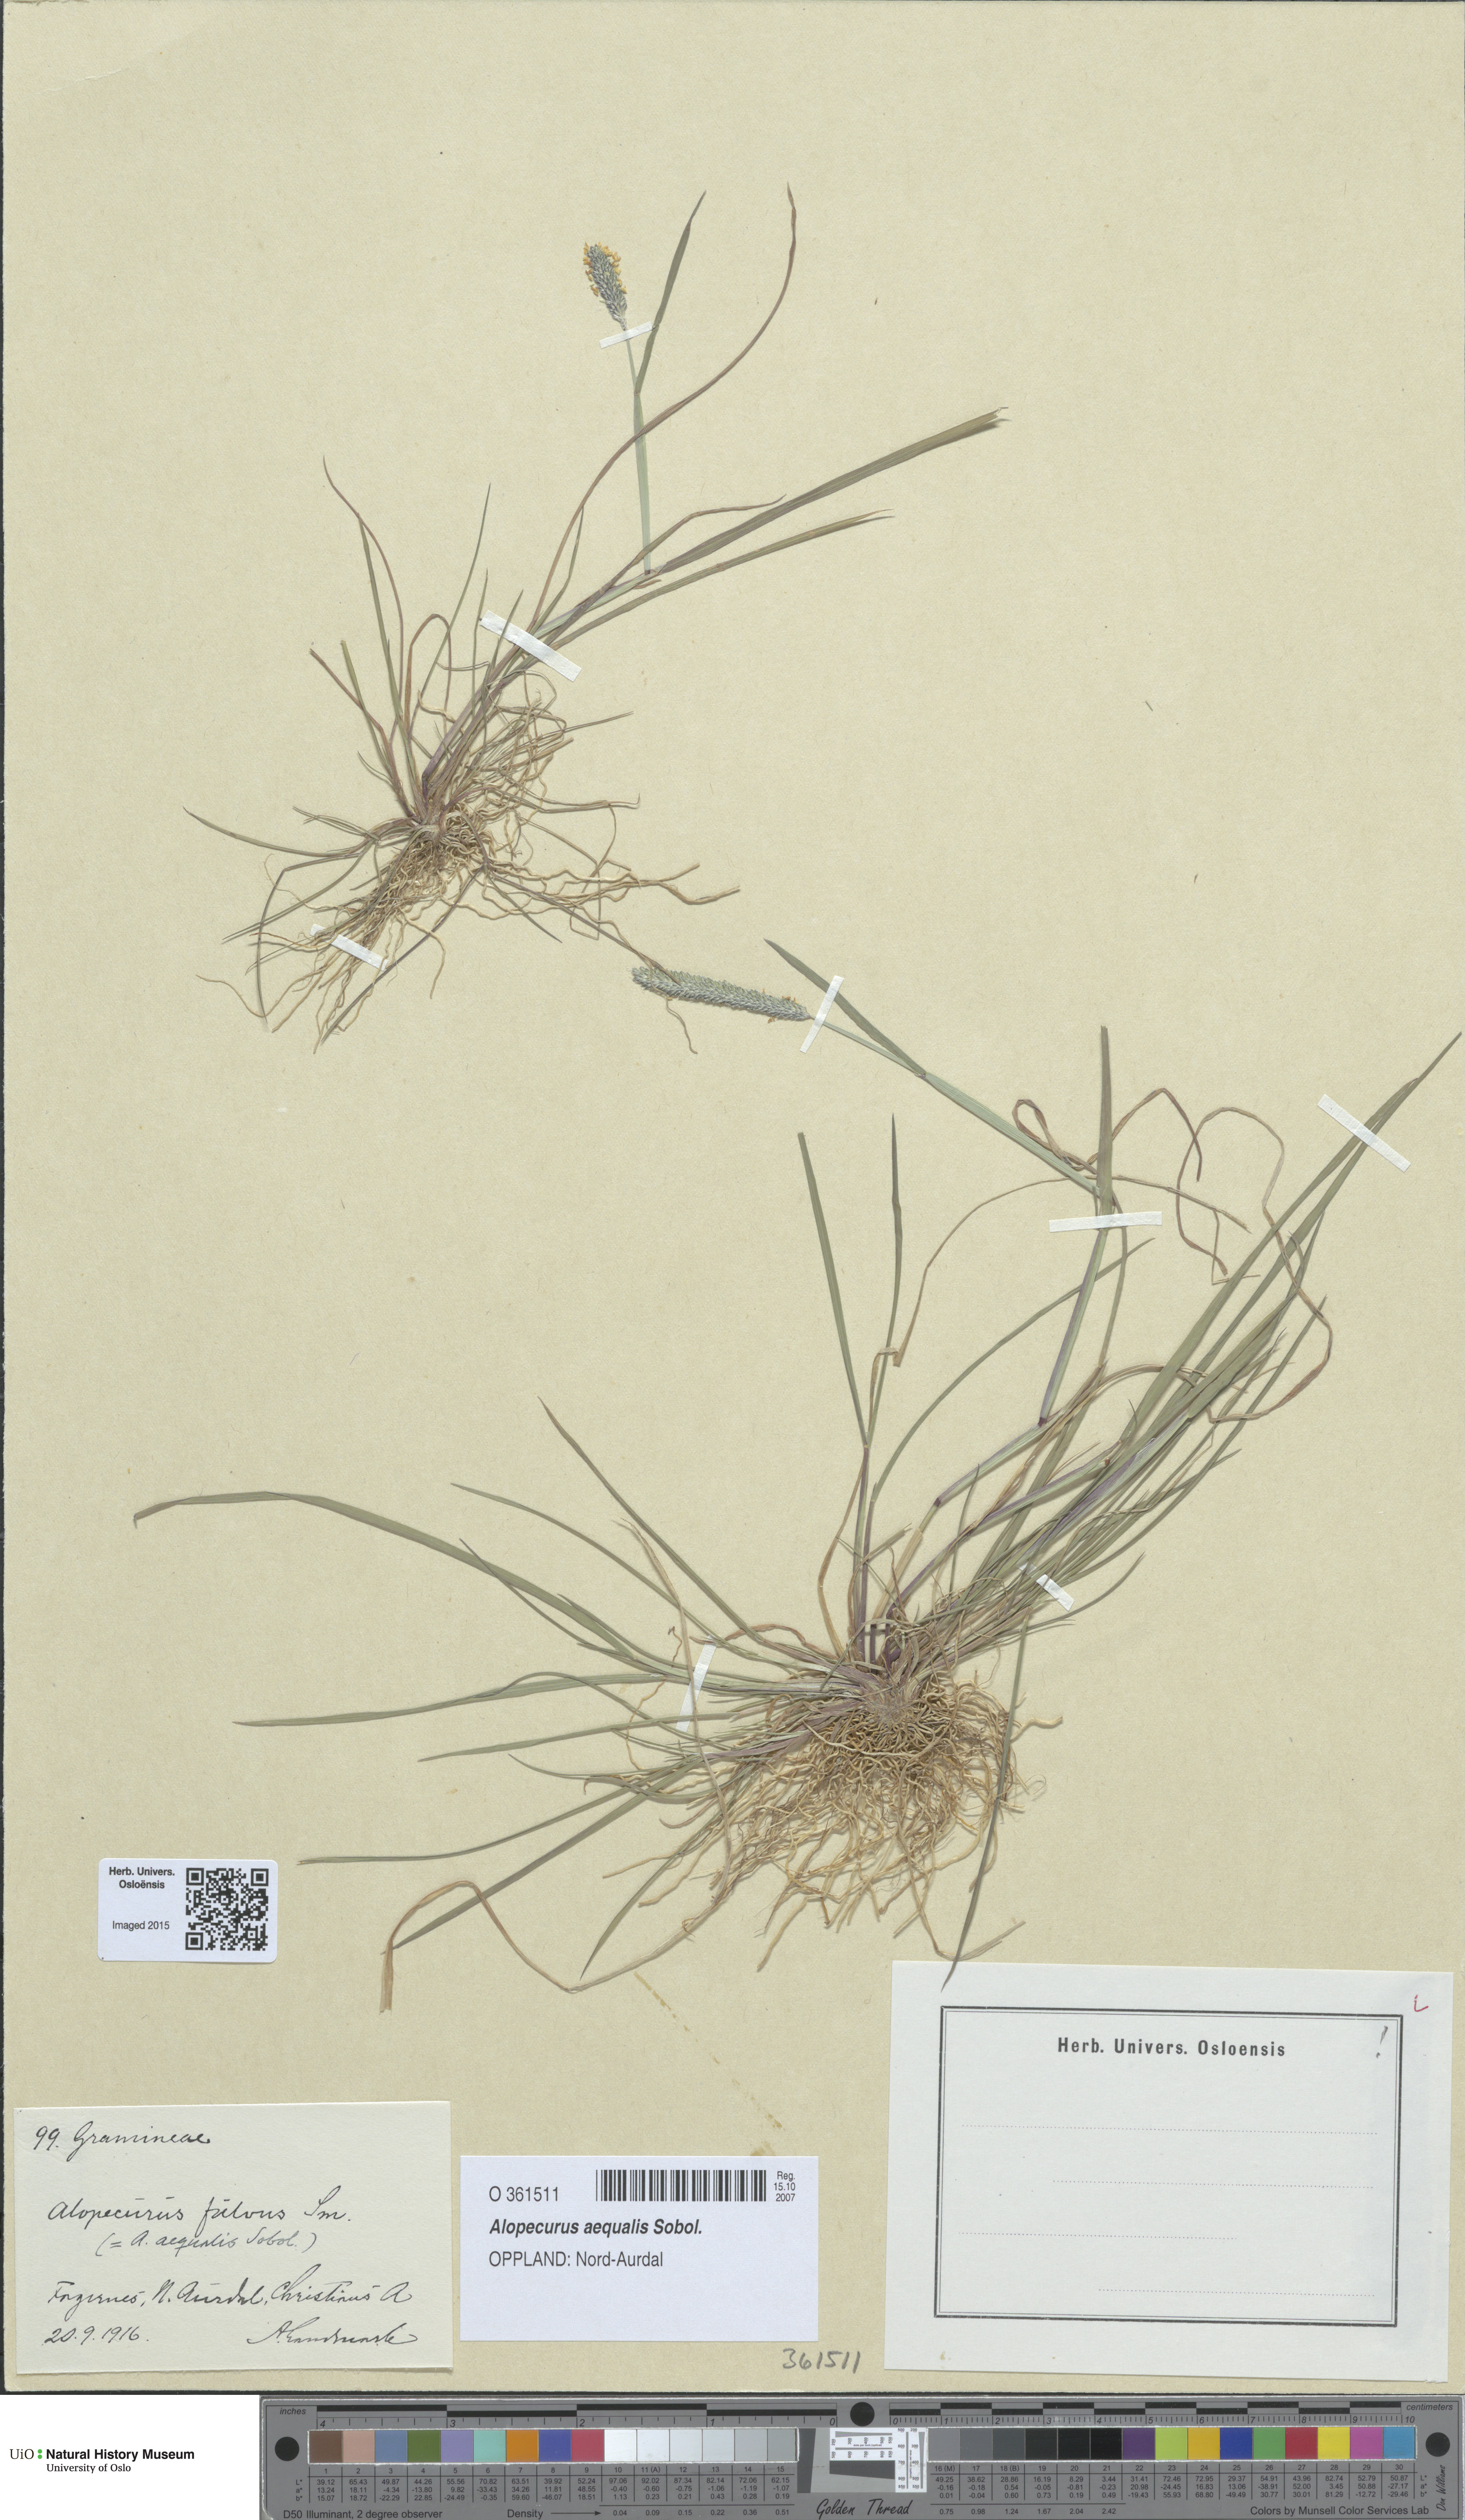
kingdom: Plantae
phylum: Tracheophyta
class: Liliopsida
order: Poales
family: Poaceae
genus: Alopecurus
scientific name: Alopecurus aequalis
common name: Orange foxtail
